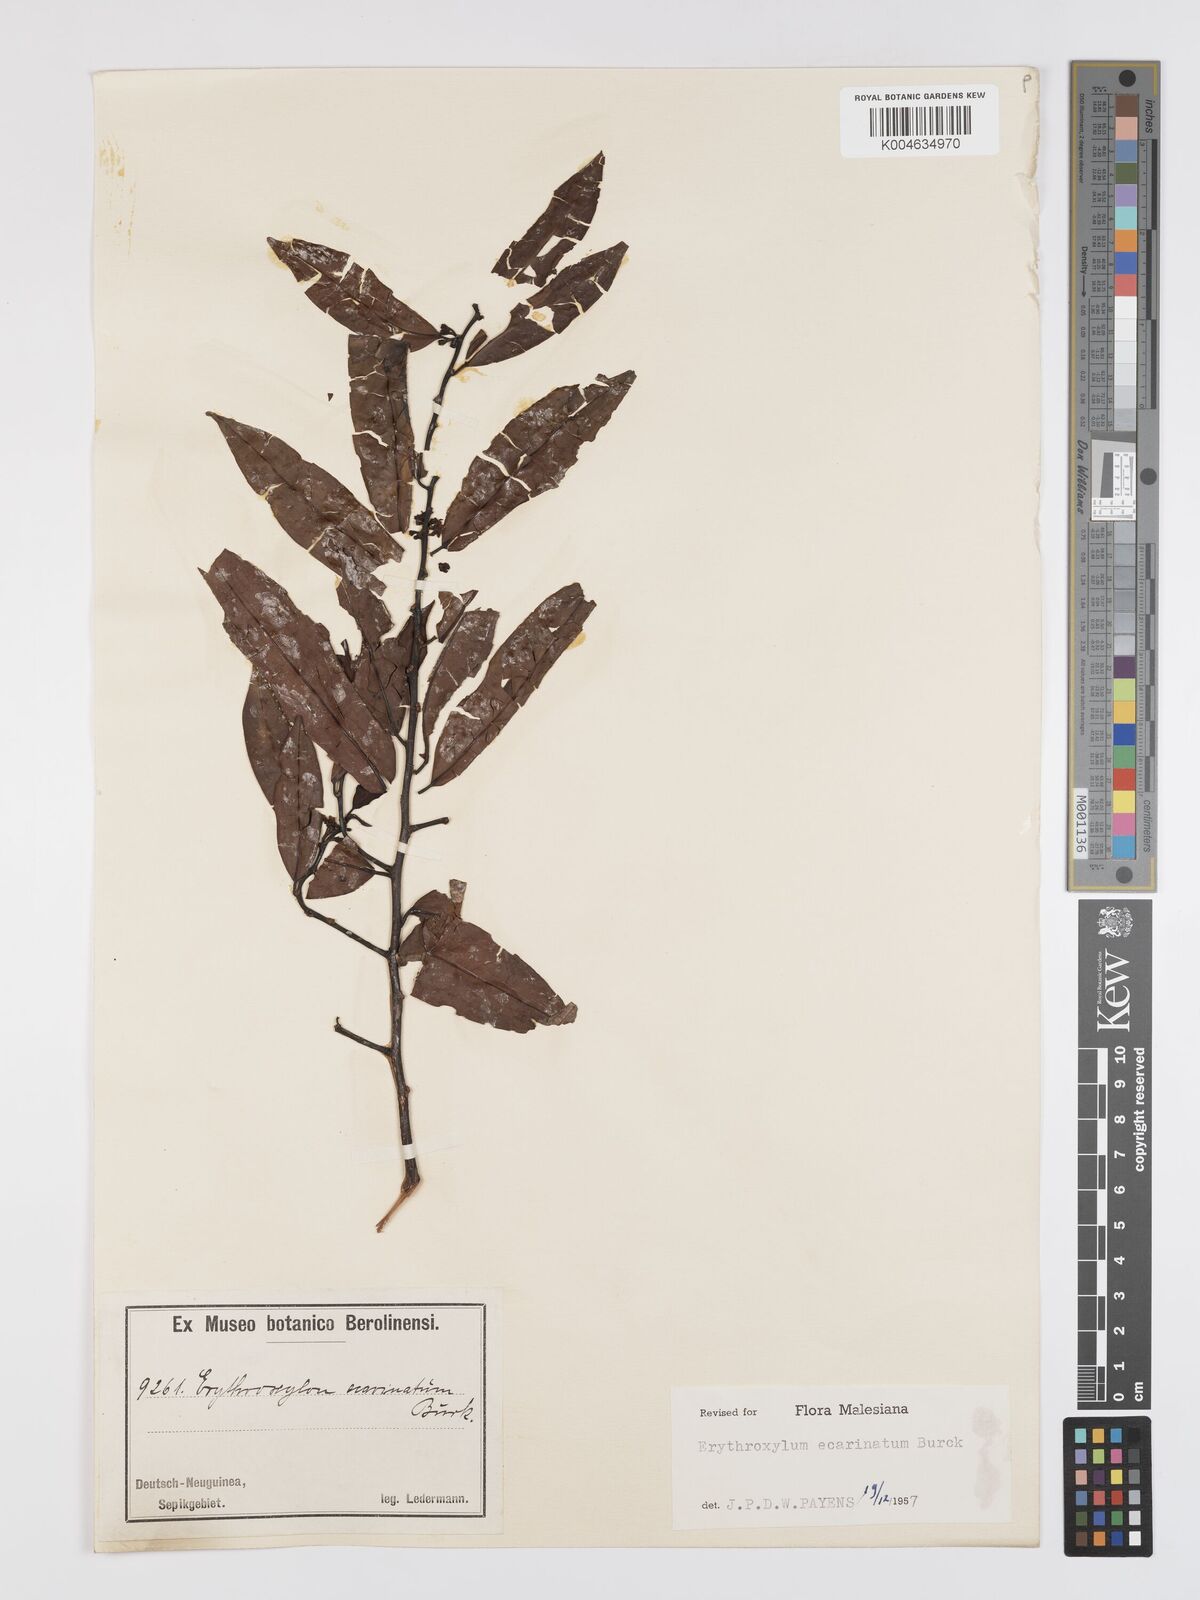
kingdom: Plantae
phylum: Tracheophyta
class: Magnoliopsida
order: Malpighiales
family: Erythroxylaceae
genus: Erythroxylum
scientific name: Erythroxylum ecarinatum
